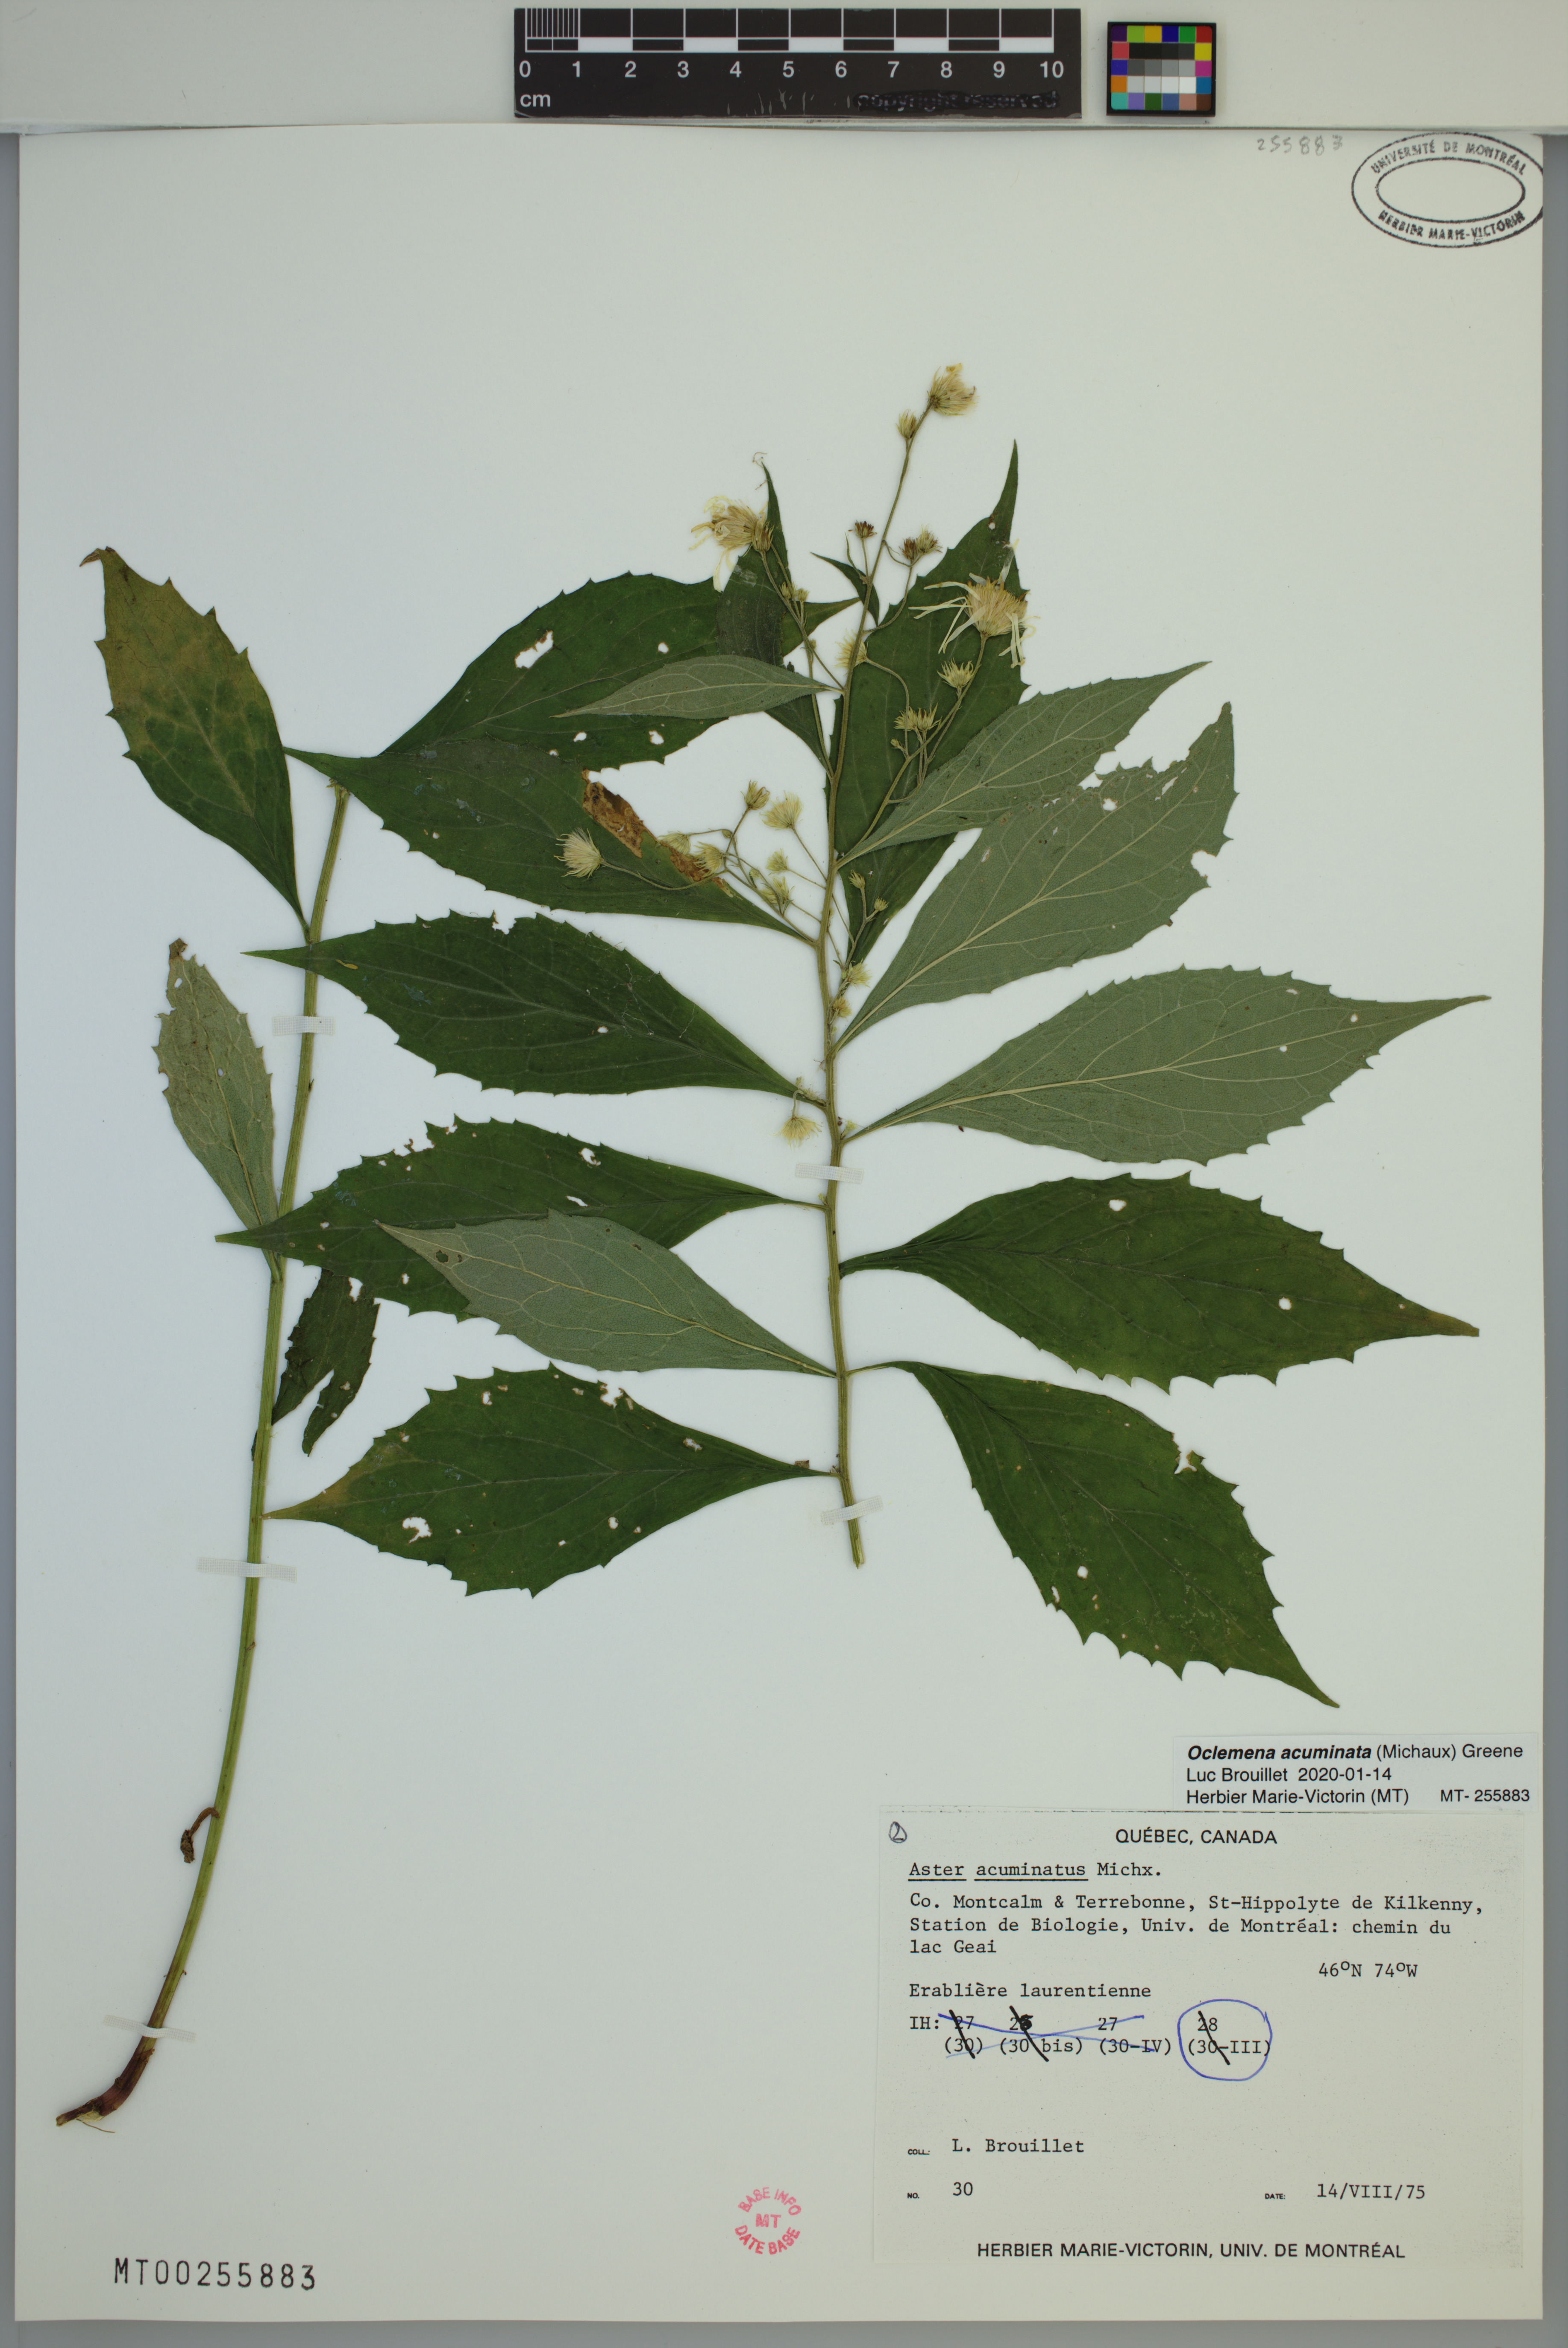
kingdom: Plantae
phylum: Tracheophyta
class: Magnoliopsida
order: Asterales
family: Asteraceae
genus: Oclemena
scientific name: Oclemena acuminata
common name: Mountain aster
